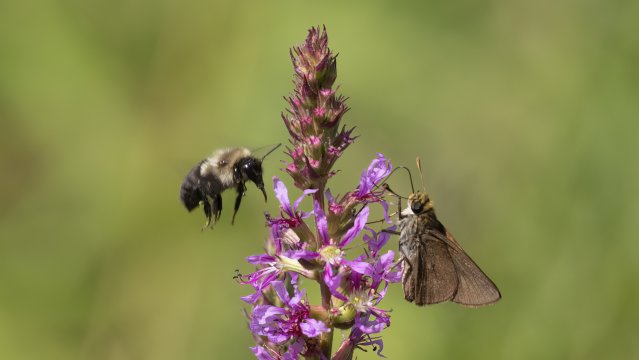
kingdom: Animalia
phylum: Arthropoda
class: Insecta
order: Lepidoptera
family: Hesperiidae
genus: Euphyes
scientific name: Euphyes vestris
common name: Dun Skipper
